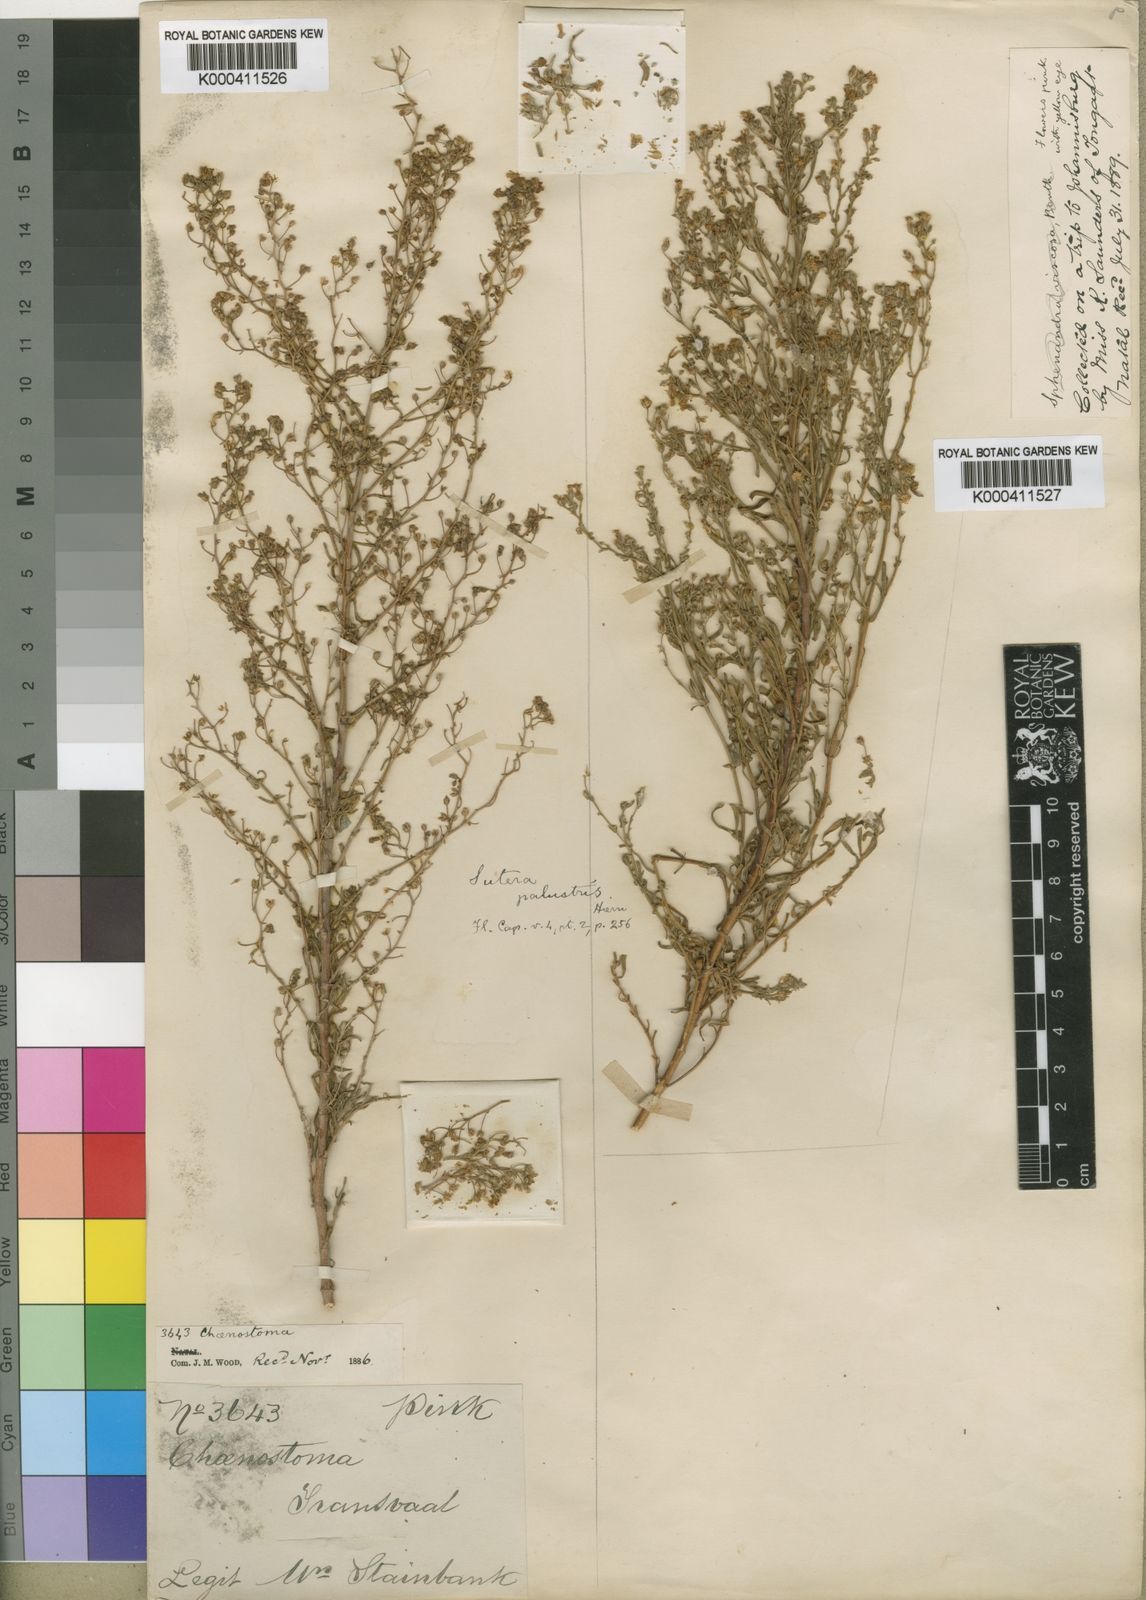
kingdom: Plantae
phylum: Tracheophyta
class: Magnoliopsida
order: Lamiales
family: Scrophulariaceae
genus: Chaenostoma
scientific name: Chaenostoma leve
